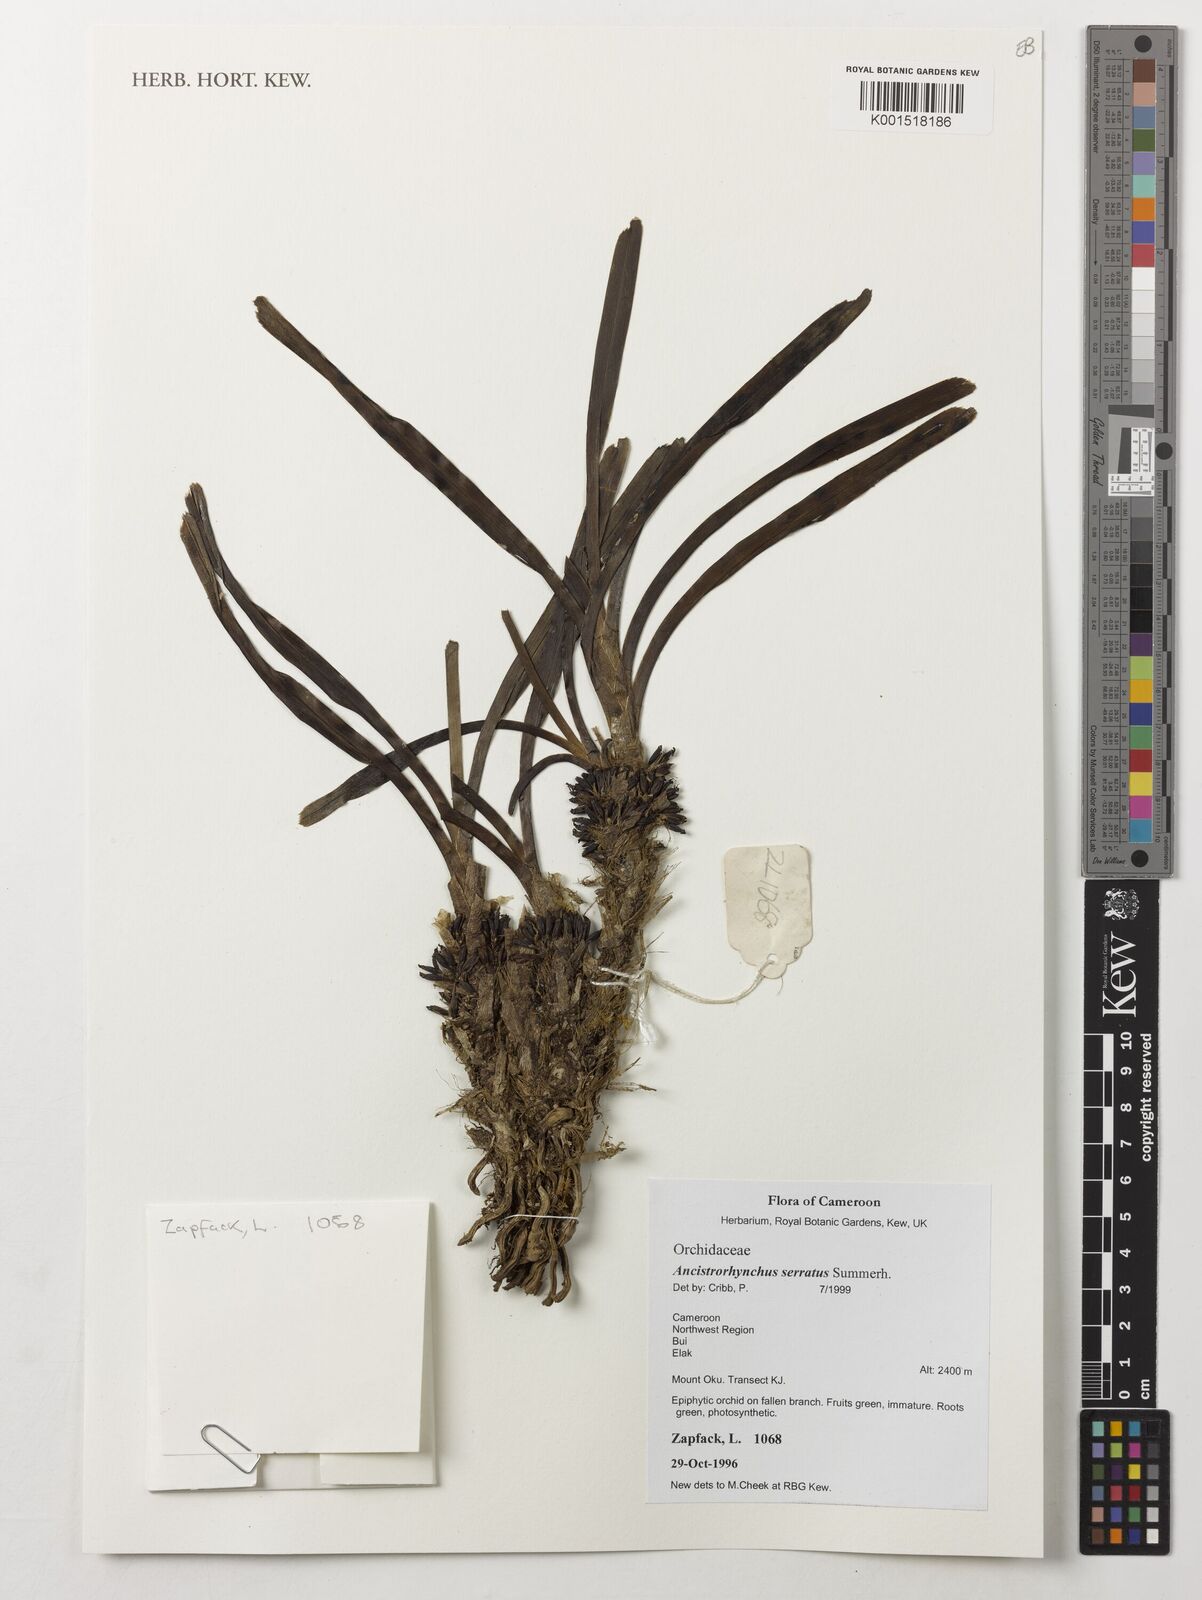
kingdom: Plantae
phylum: Tracheophyta
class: Liliopsida
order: Asparagales
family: Orchidaceae
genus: Ancistrorhynchus
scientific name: Ancistrorhynchus serratus
